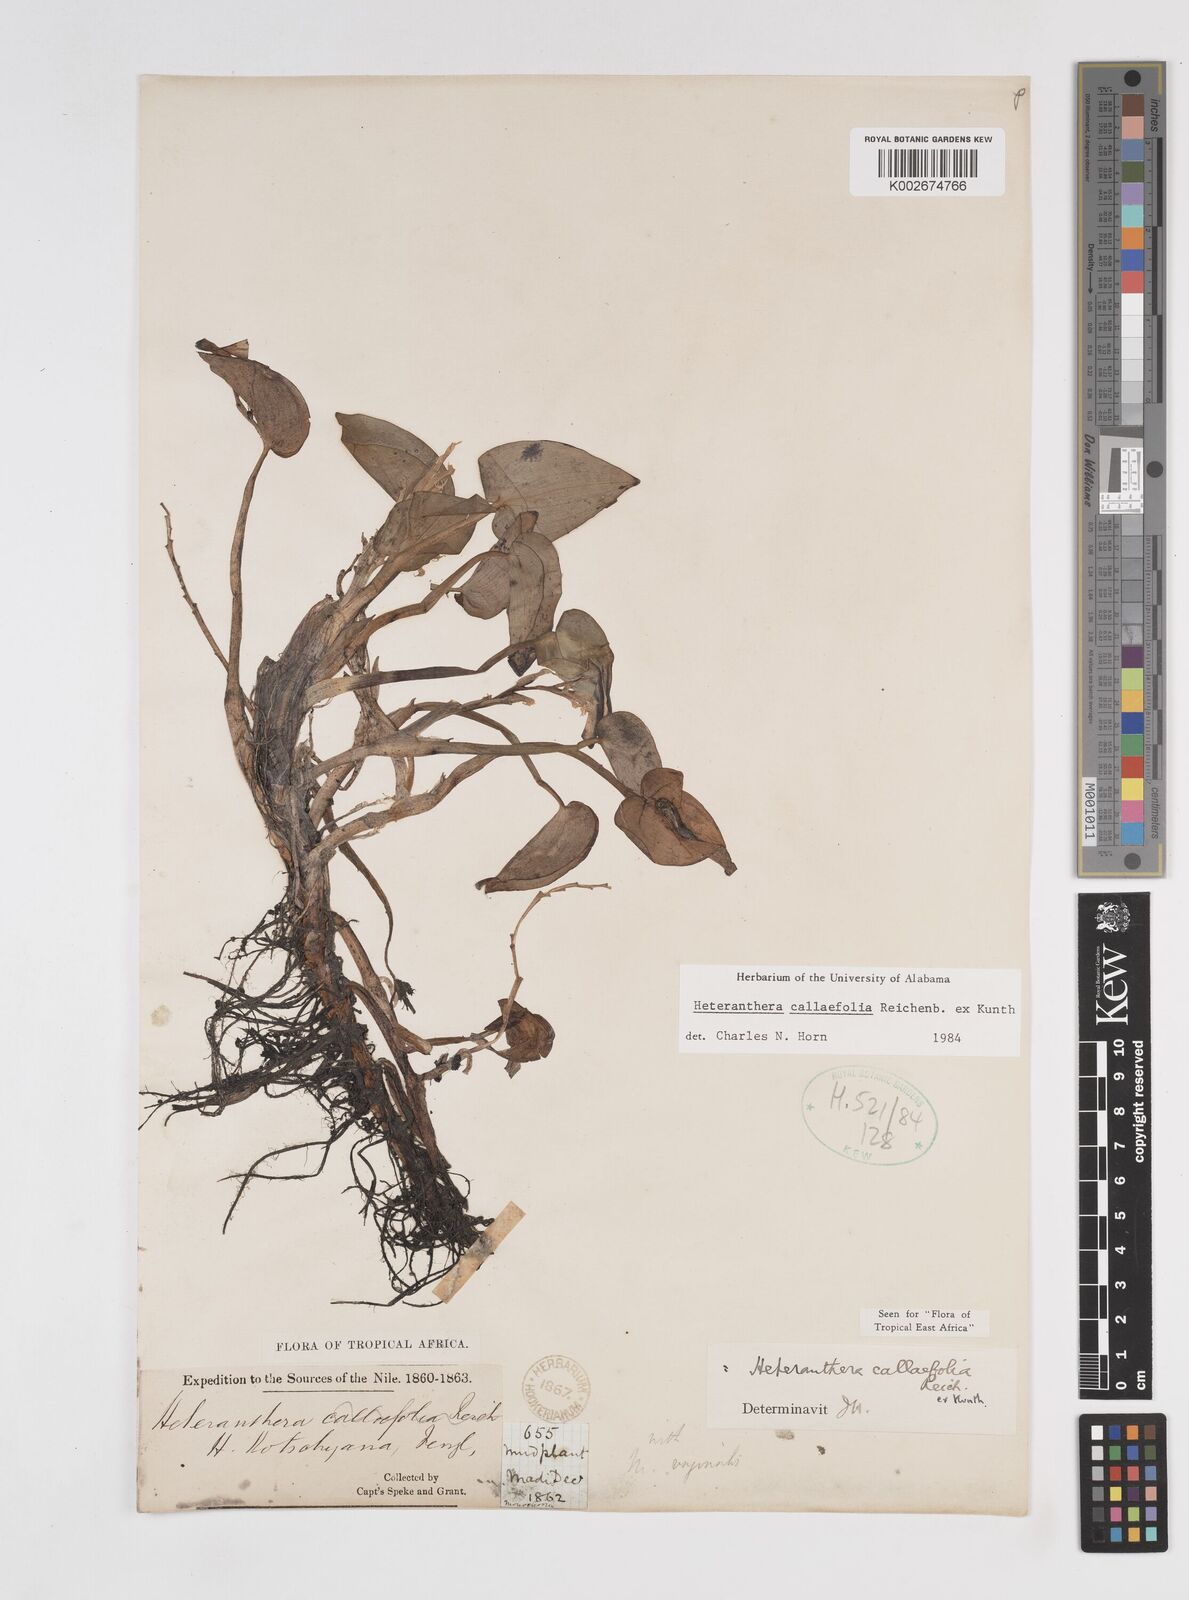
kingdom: Plantae
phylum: Tracheophyta
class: Liliopsida
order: Commelinales
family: Pontederiaceae
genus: Heteranthera
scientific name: Heteranthera callifolia
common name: Mud plantain
